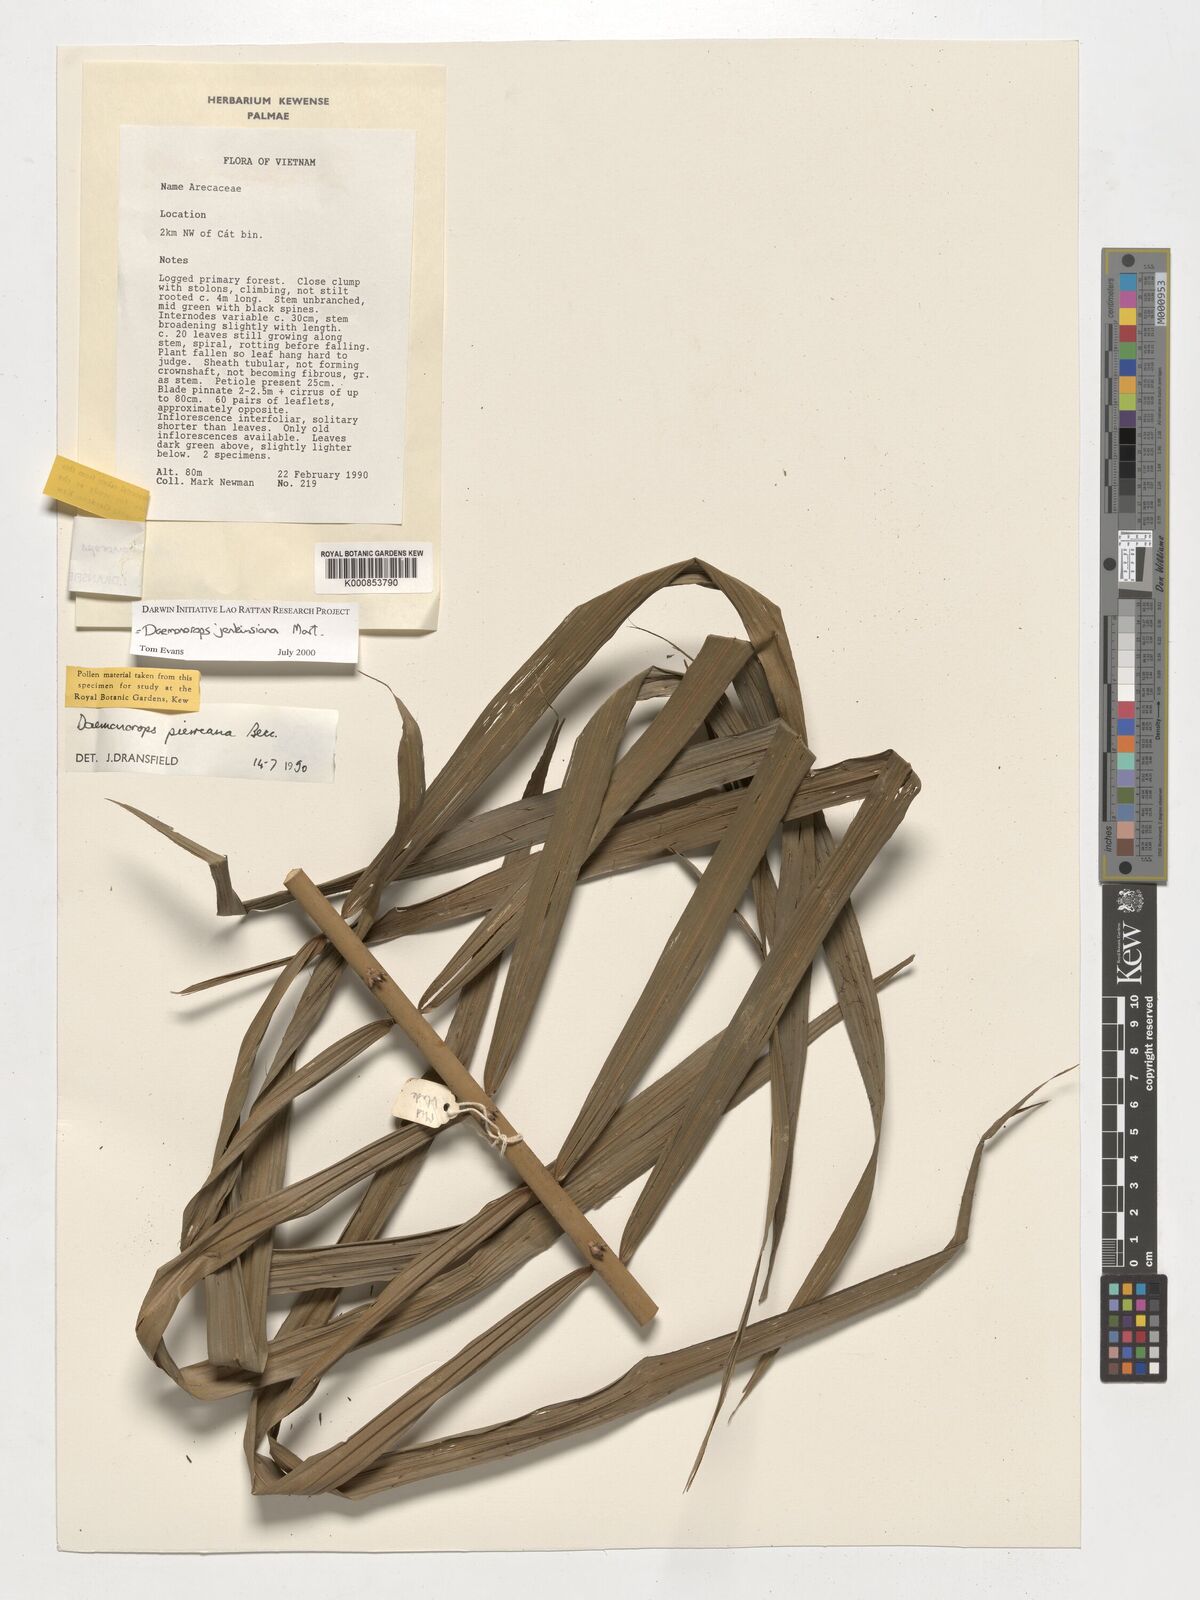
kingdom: Plantae
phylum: Tracheophyta
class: Liliopsida
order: Arecales
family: Arecaceae
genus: Calamus
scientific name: Calamus melanochaetes
